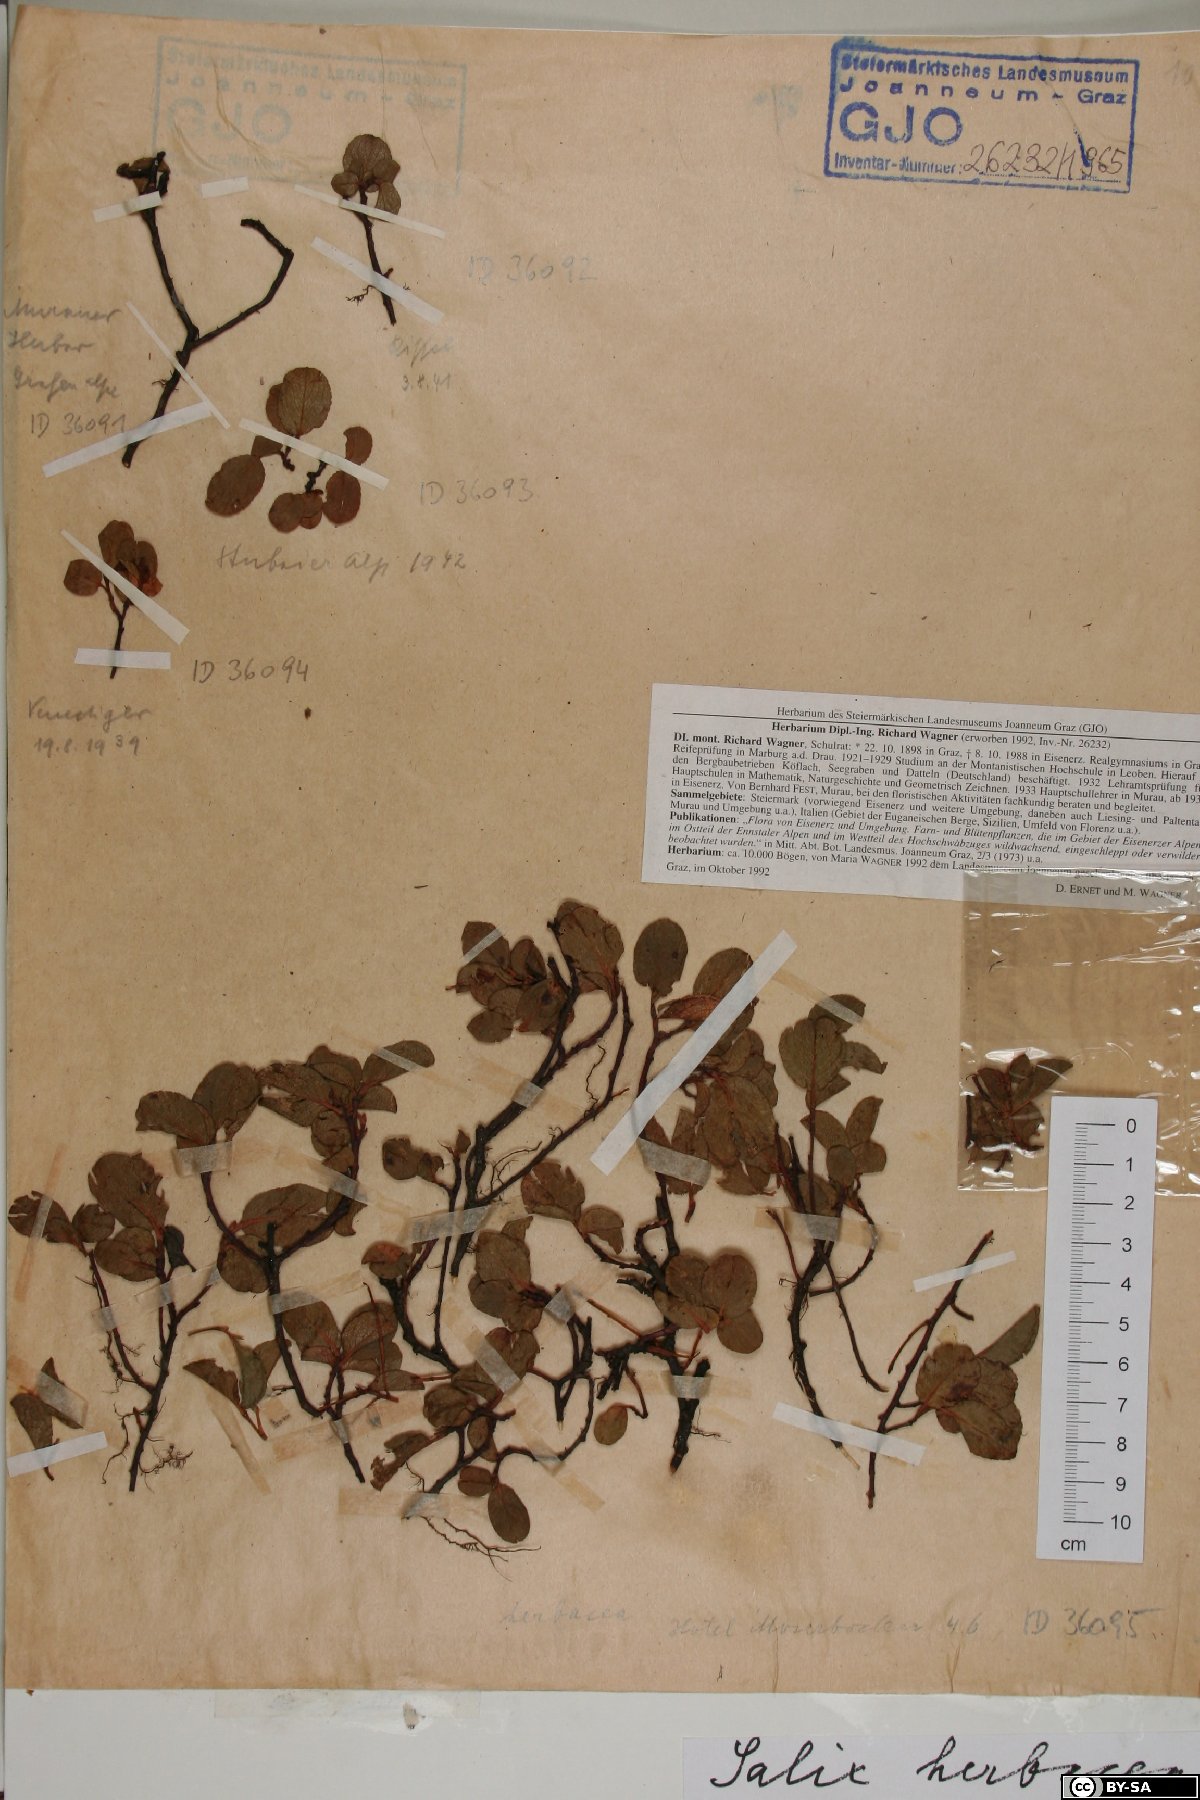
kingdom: Plantae
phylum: Tracheophyta
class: Magnoliopsida
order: Malpighiales
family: Salicaceae
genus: Salix
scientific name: Salix herbacea
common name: Dwarf willow
